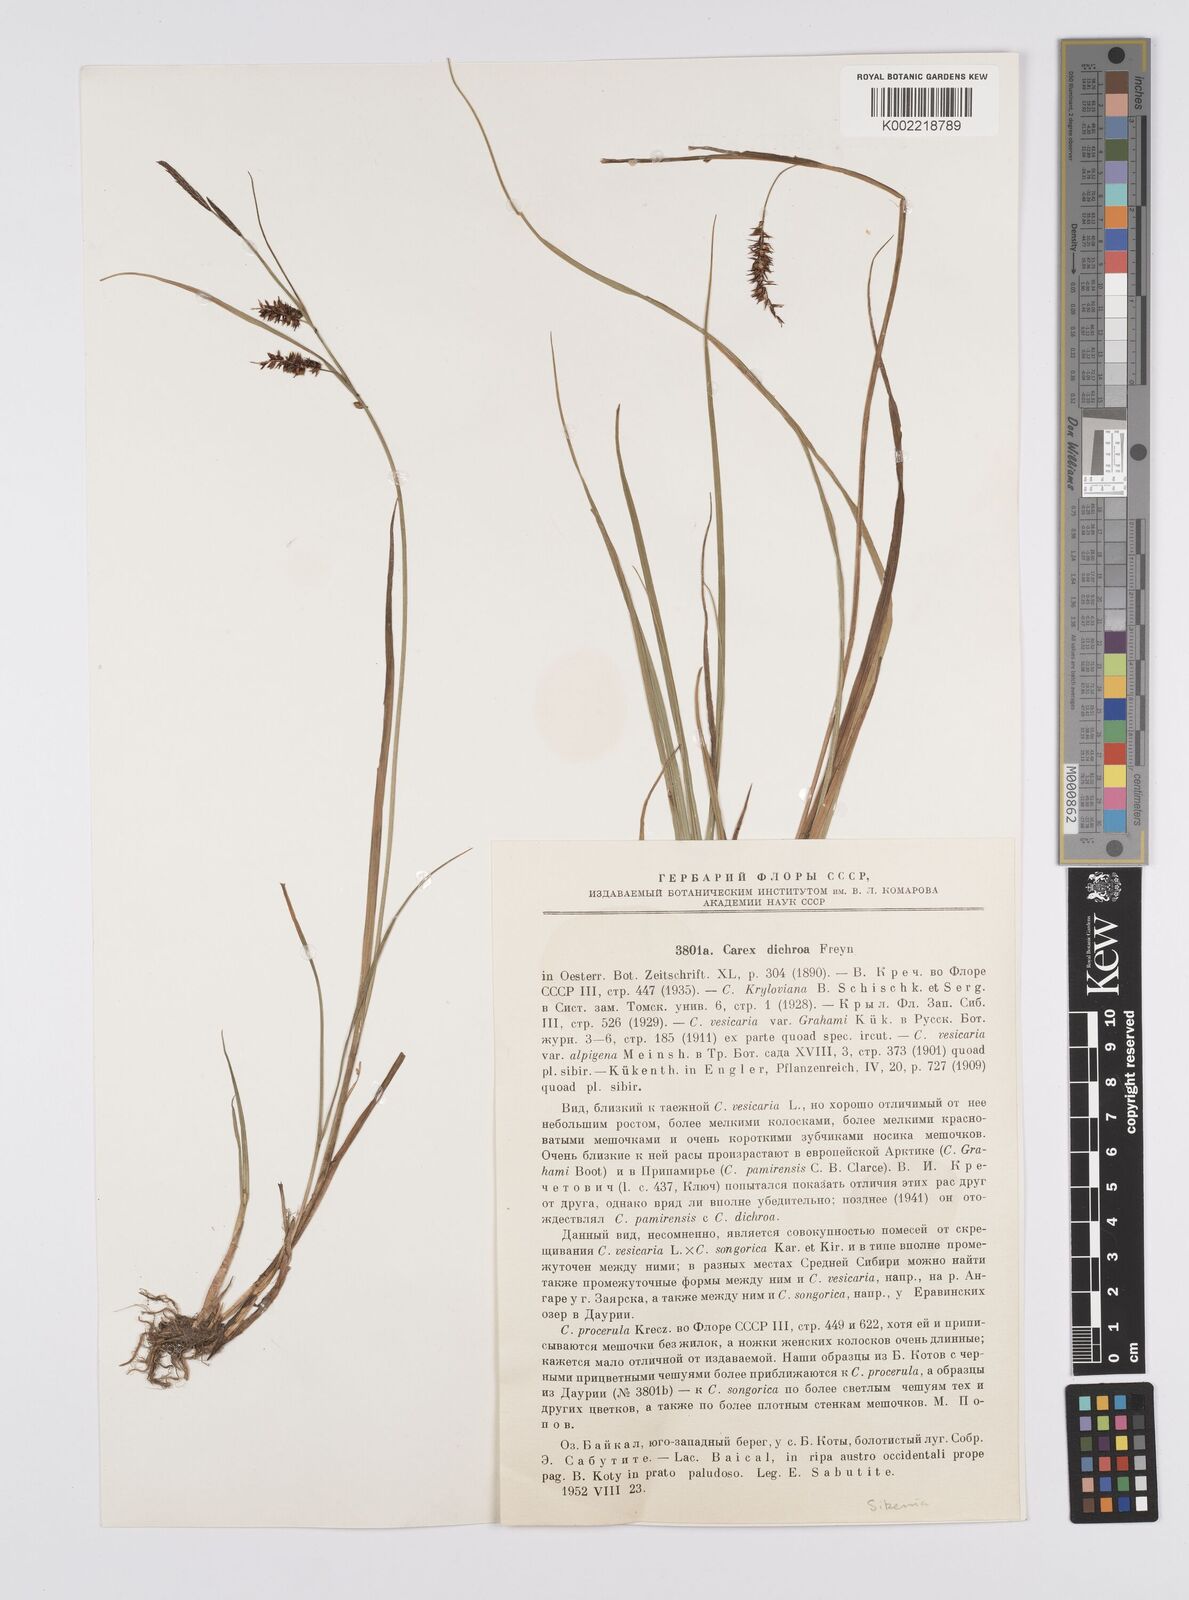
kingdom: Plantae
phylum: Tracheophyta
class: Liliopsida
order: Poales
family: Cyperaceae
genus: Carex
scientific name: Carex
